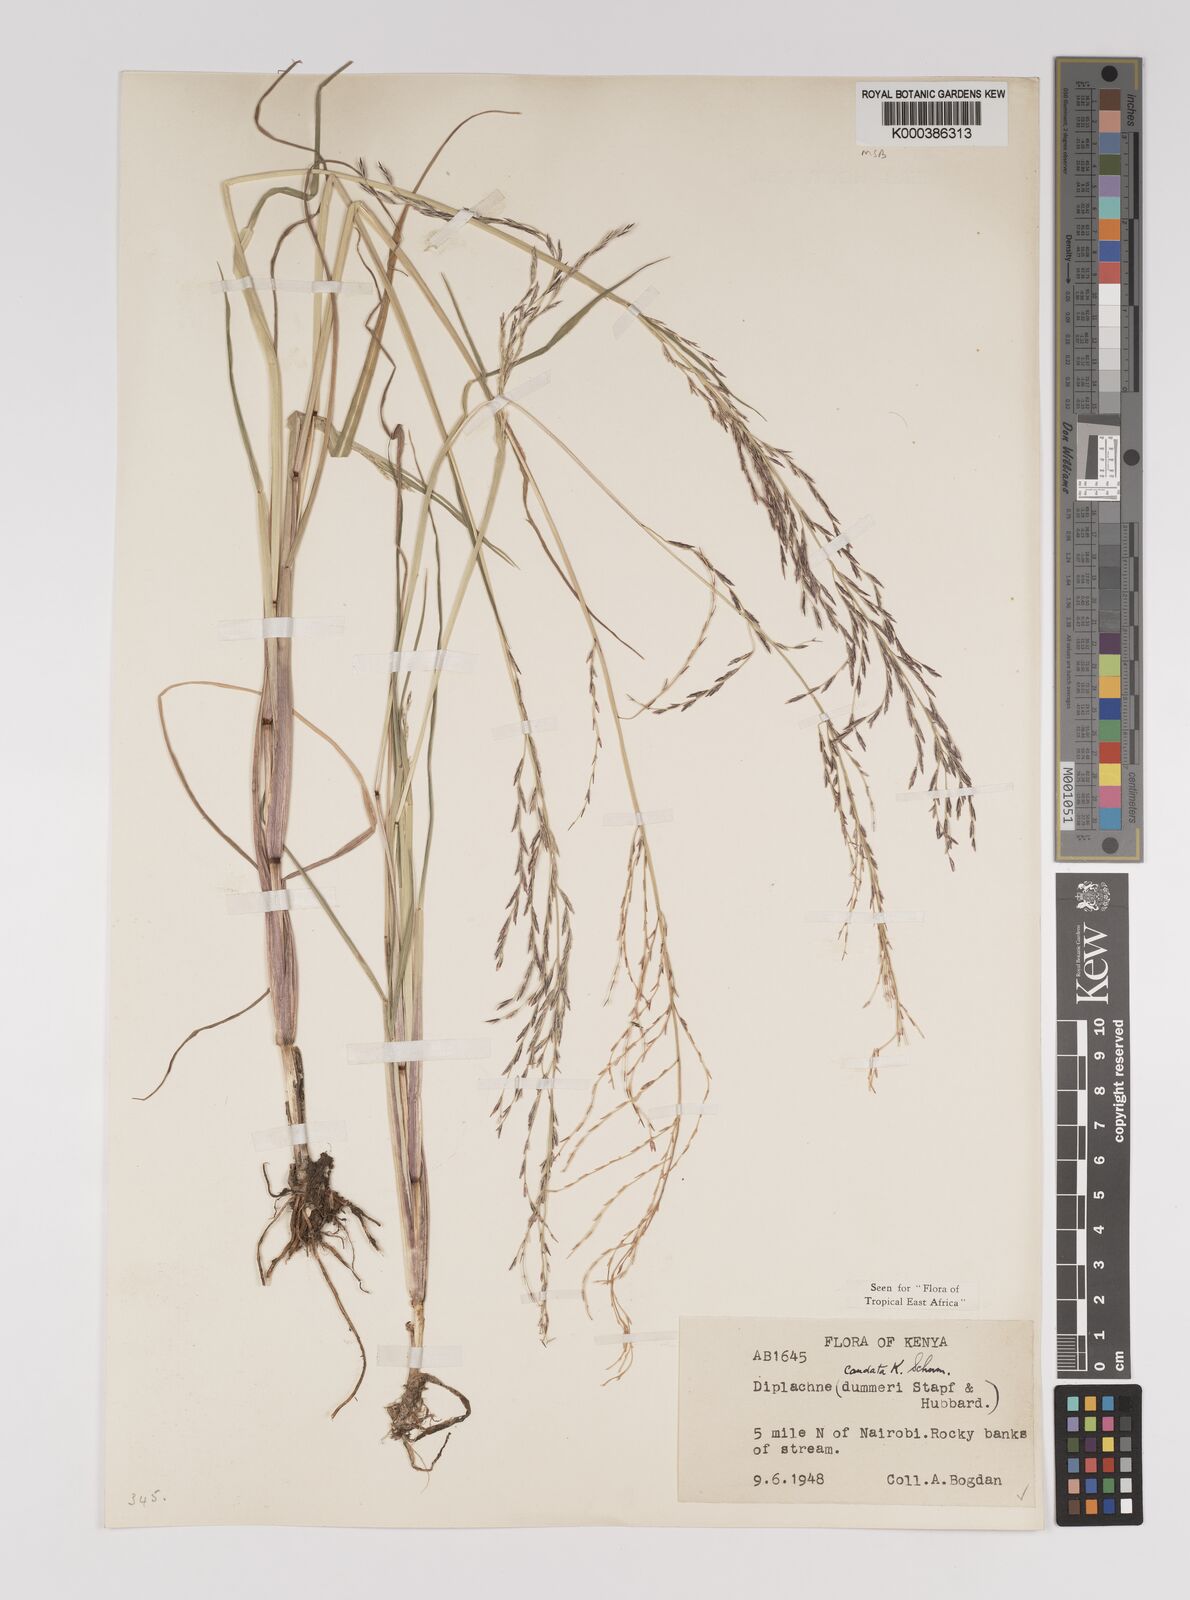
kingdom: Plantae
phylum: Tracheophyta
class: Liliopsida
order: Poales
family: Poaceae
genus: Leptochloa
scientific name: Leptochloa caudata
